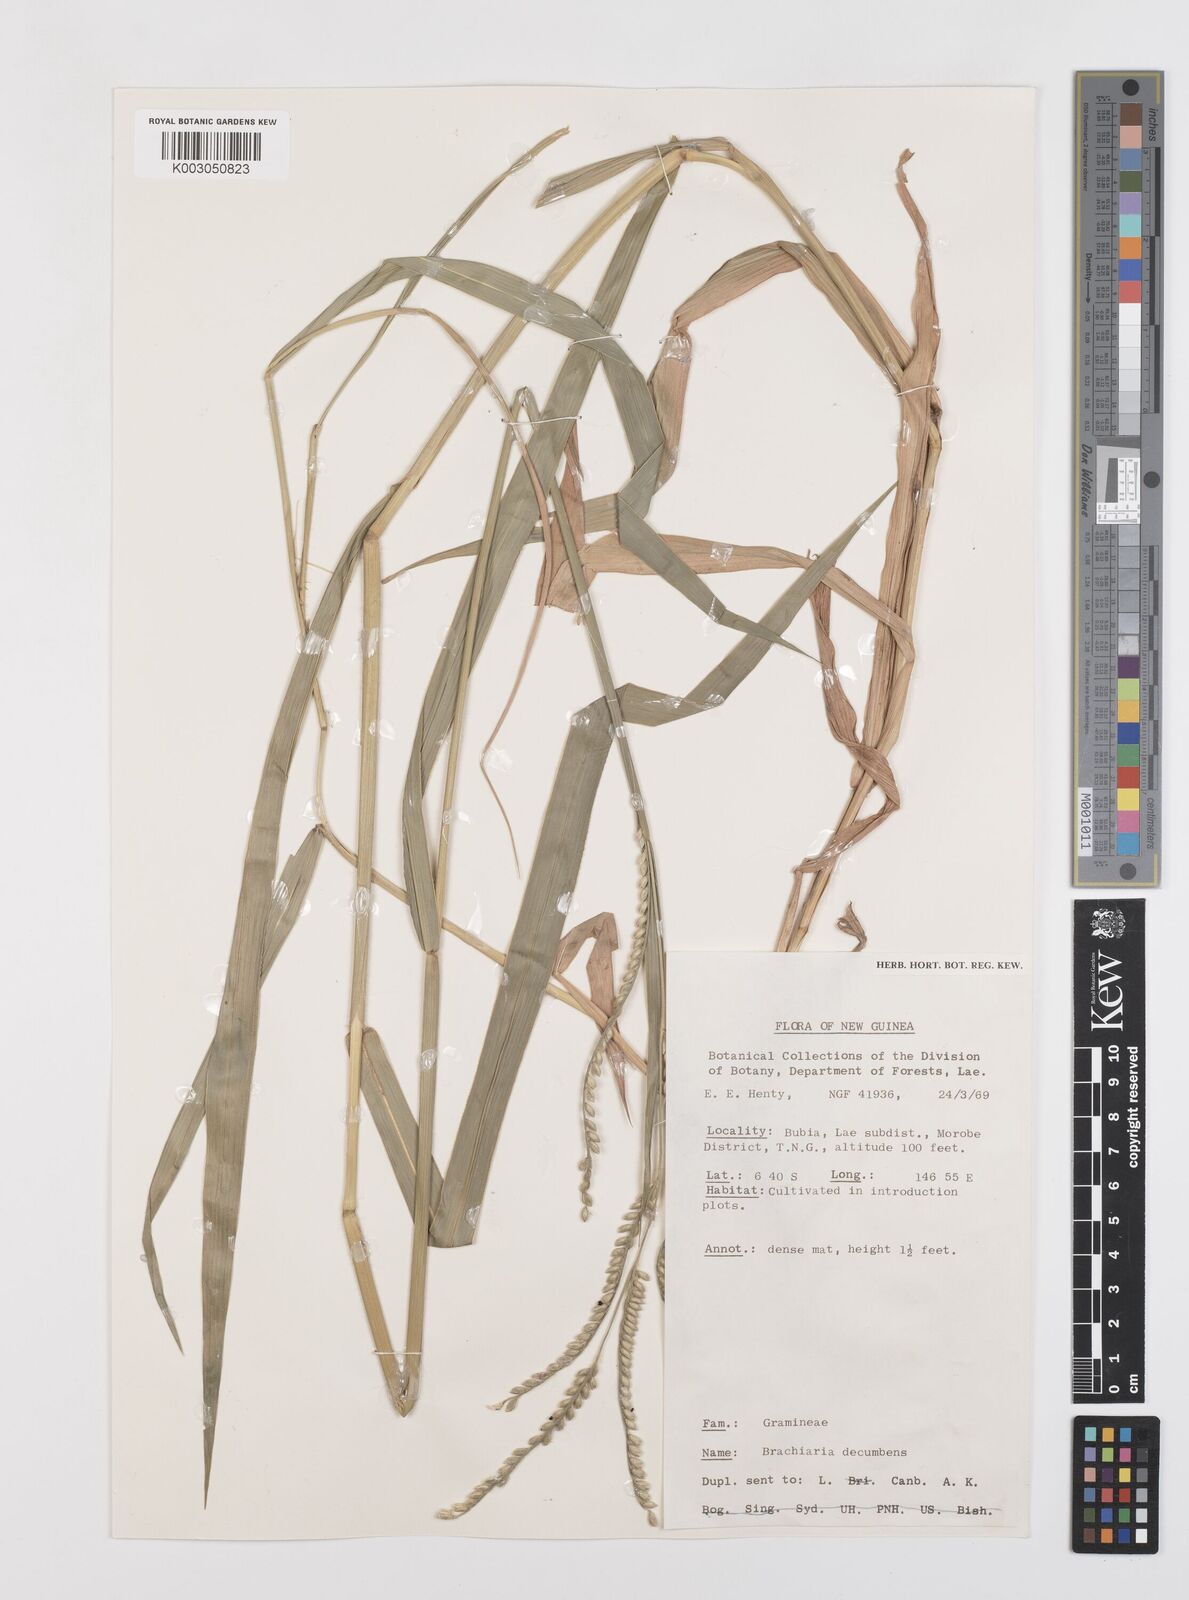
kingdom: Plantae
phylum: Tracheophyta
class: Liliopsida
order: Poales
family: Poaceae
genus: Urochloa
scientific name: Urochloa eminii
